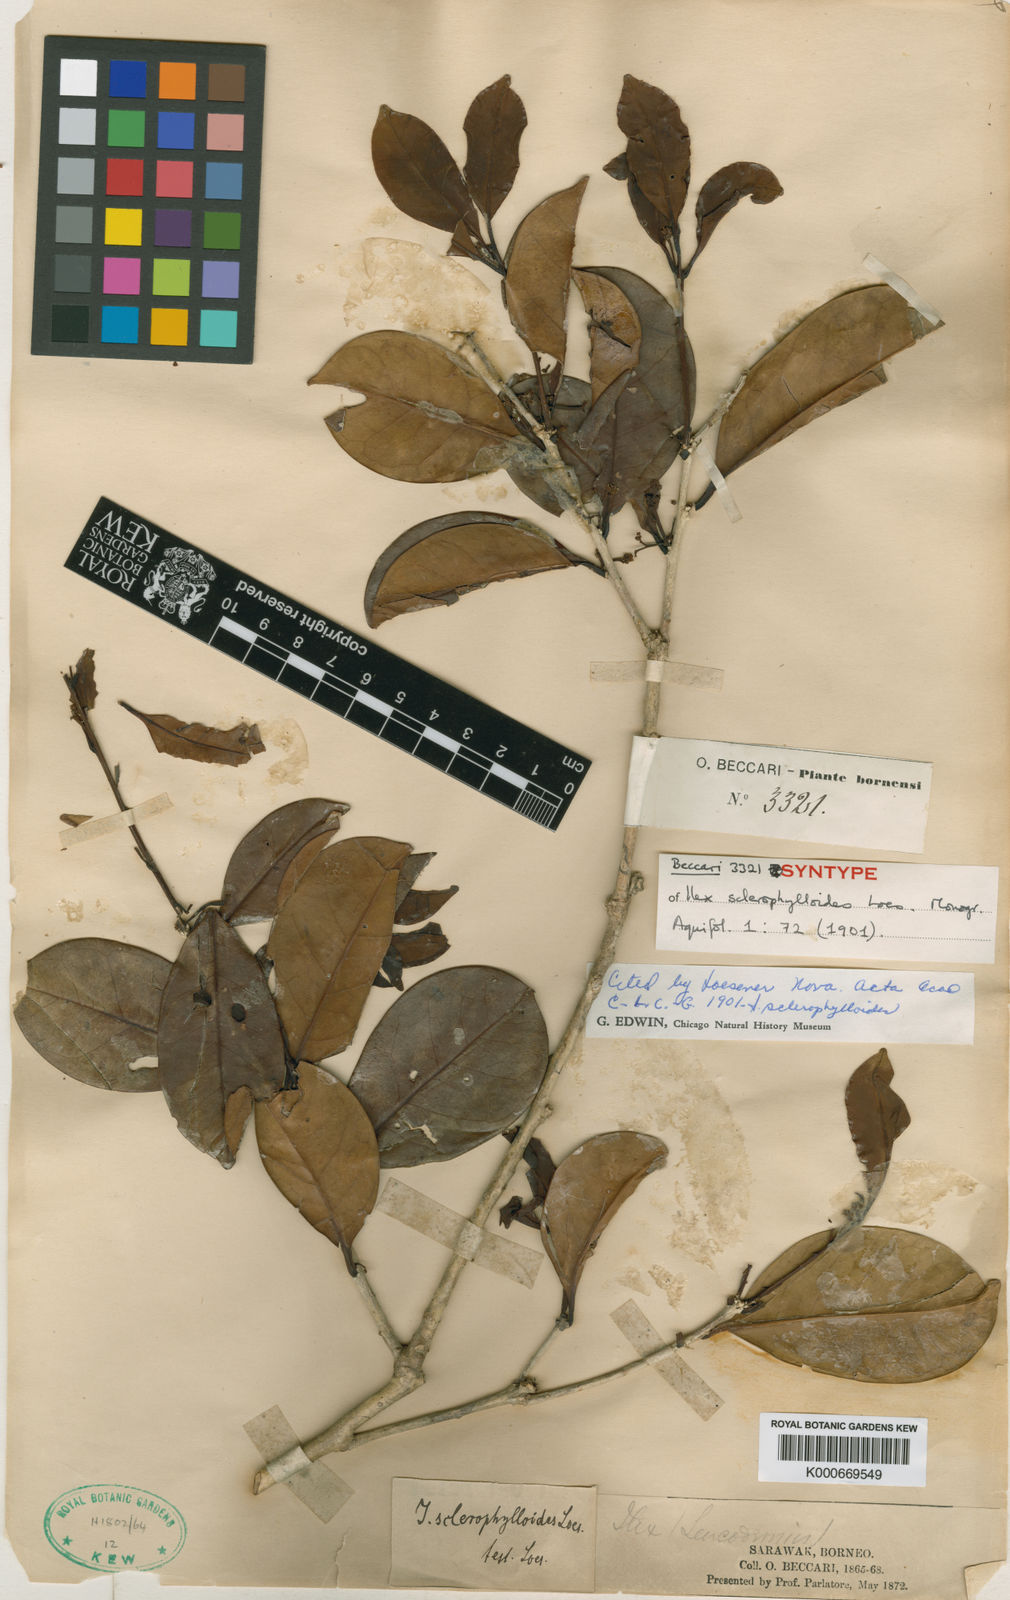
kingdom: Plantae
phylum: Tracheophyta
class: Magnoliopsida
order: Aquifoliales
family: Aquifoliaceae
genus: Ilex
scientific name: Ilex wallichii
